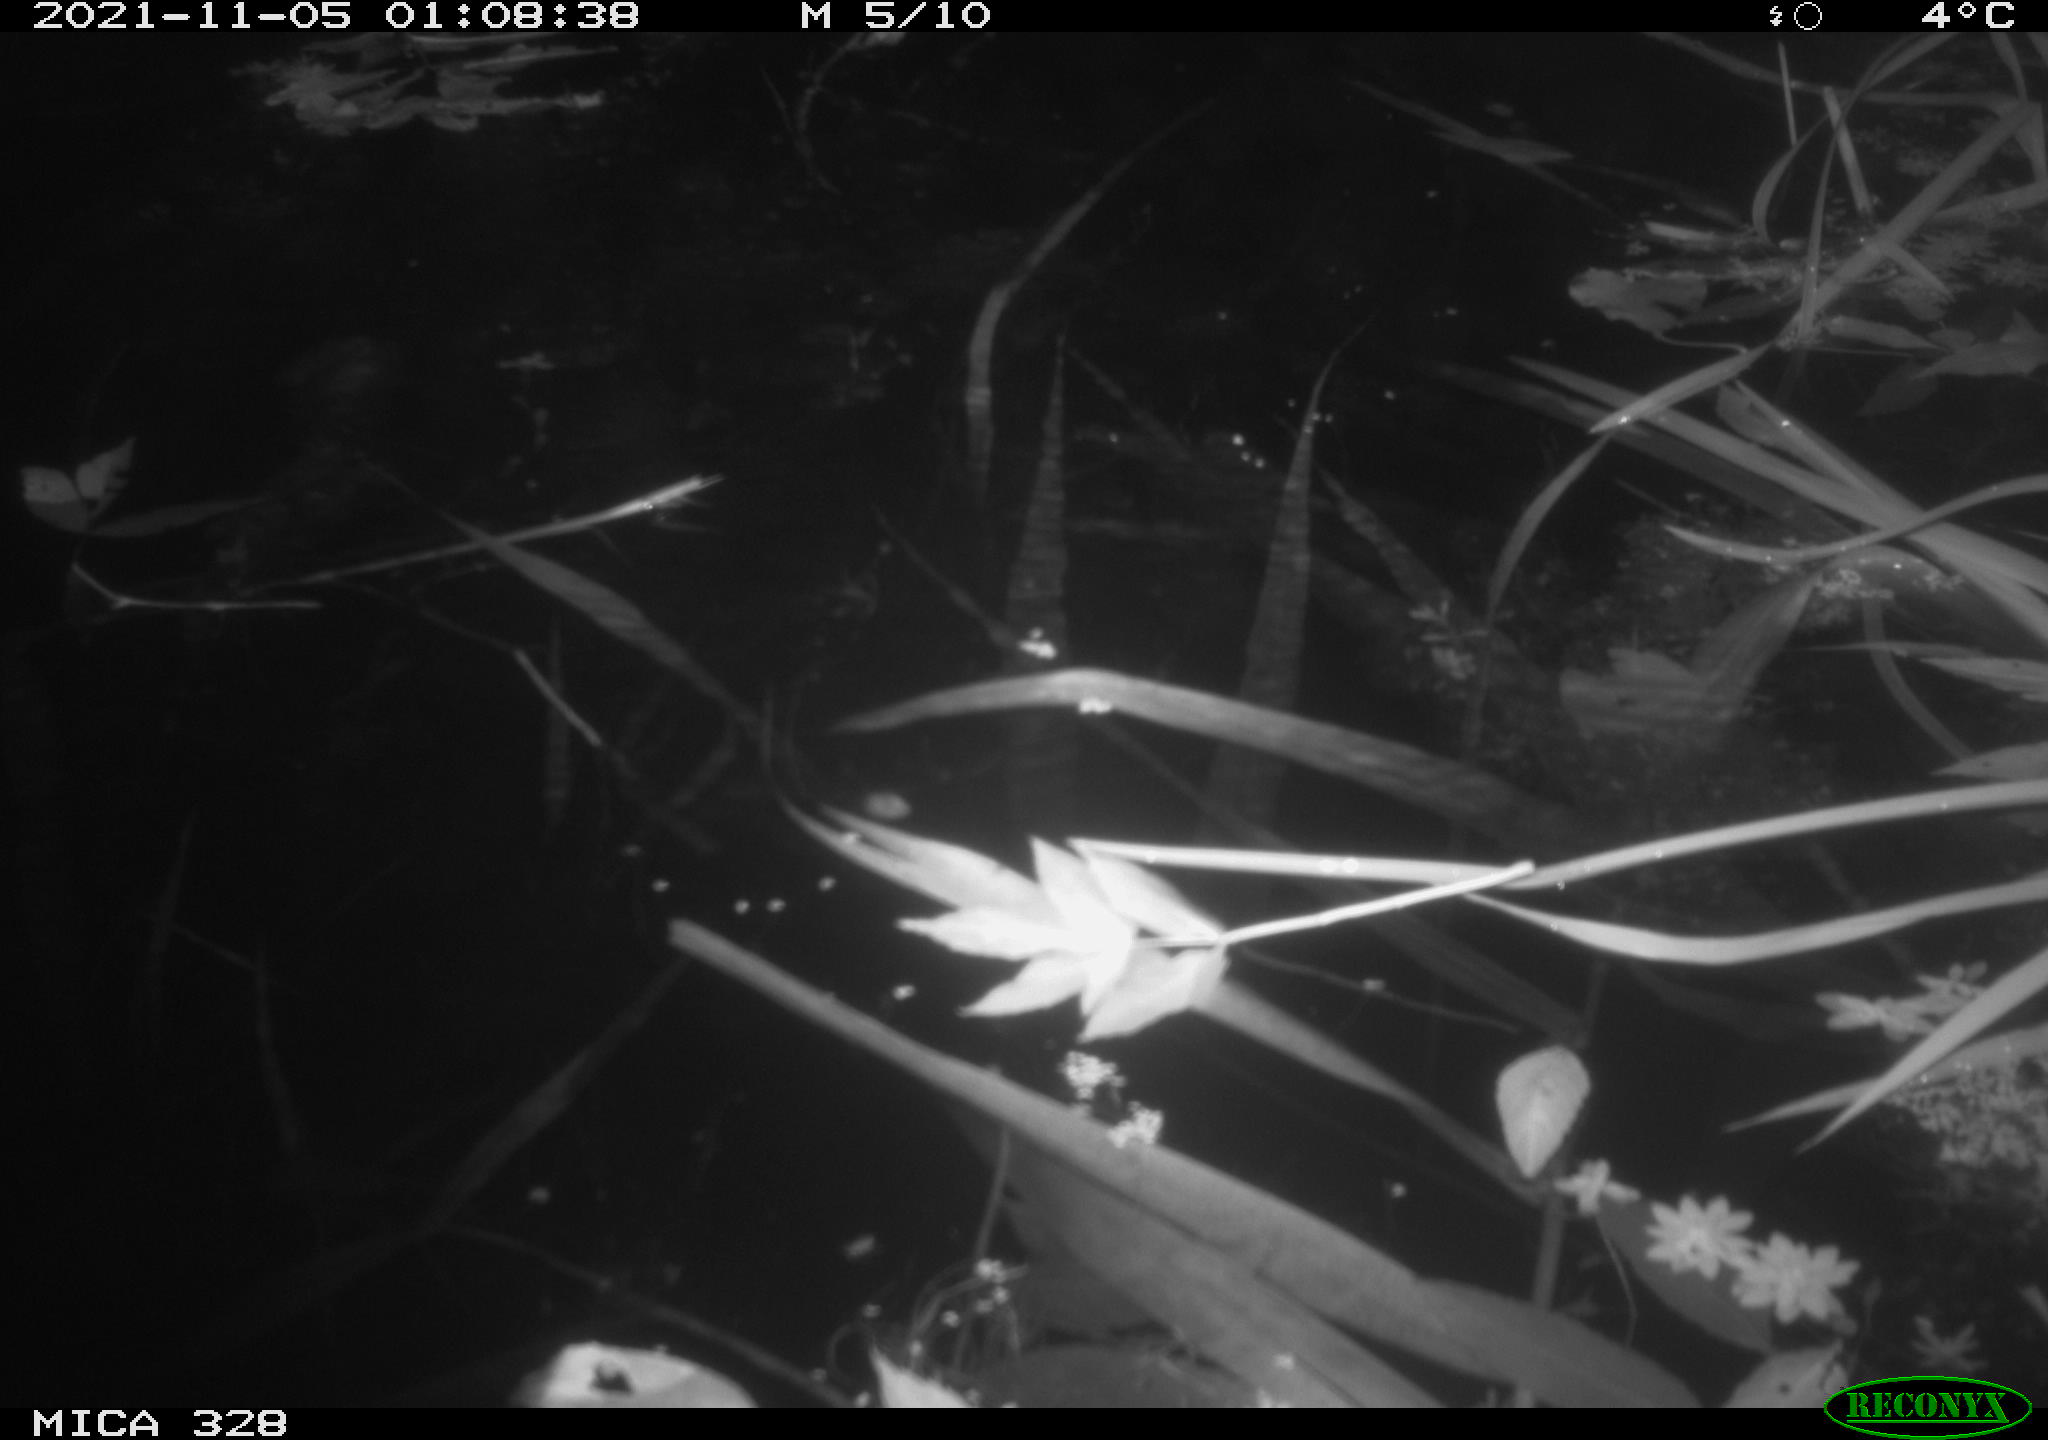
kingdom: Animalia
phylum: Chordata
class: Mammalia
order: Rodentia
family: Cricetidae
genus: Ondatra
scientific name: Ondatra zibethicus
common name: Muskrat
